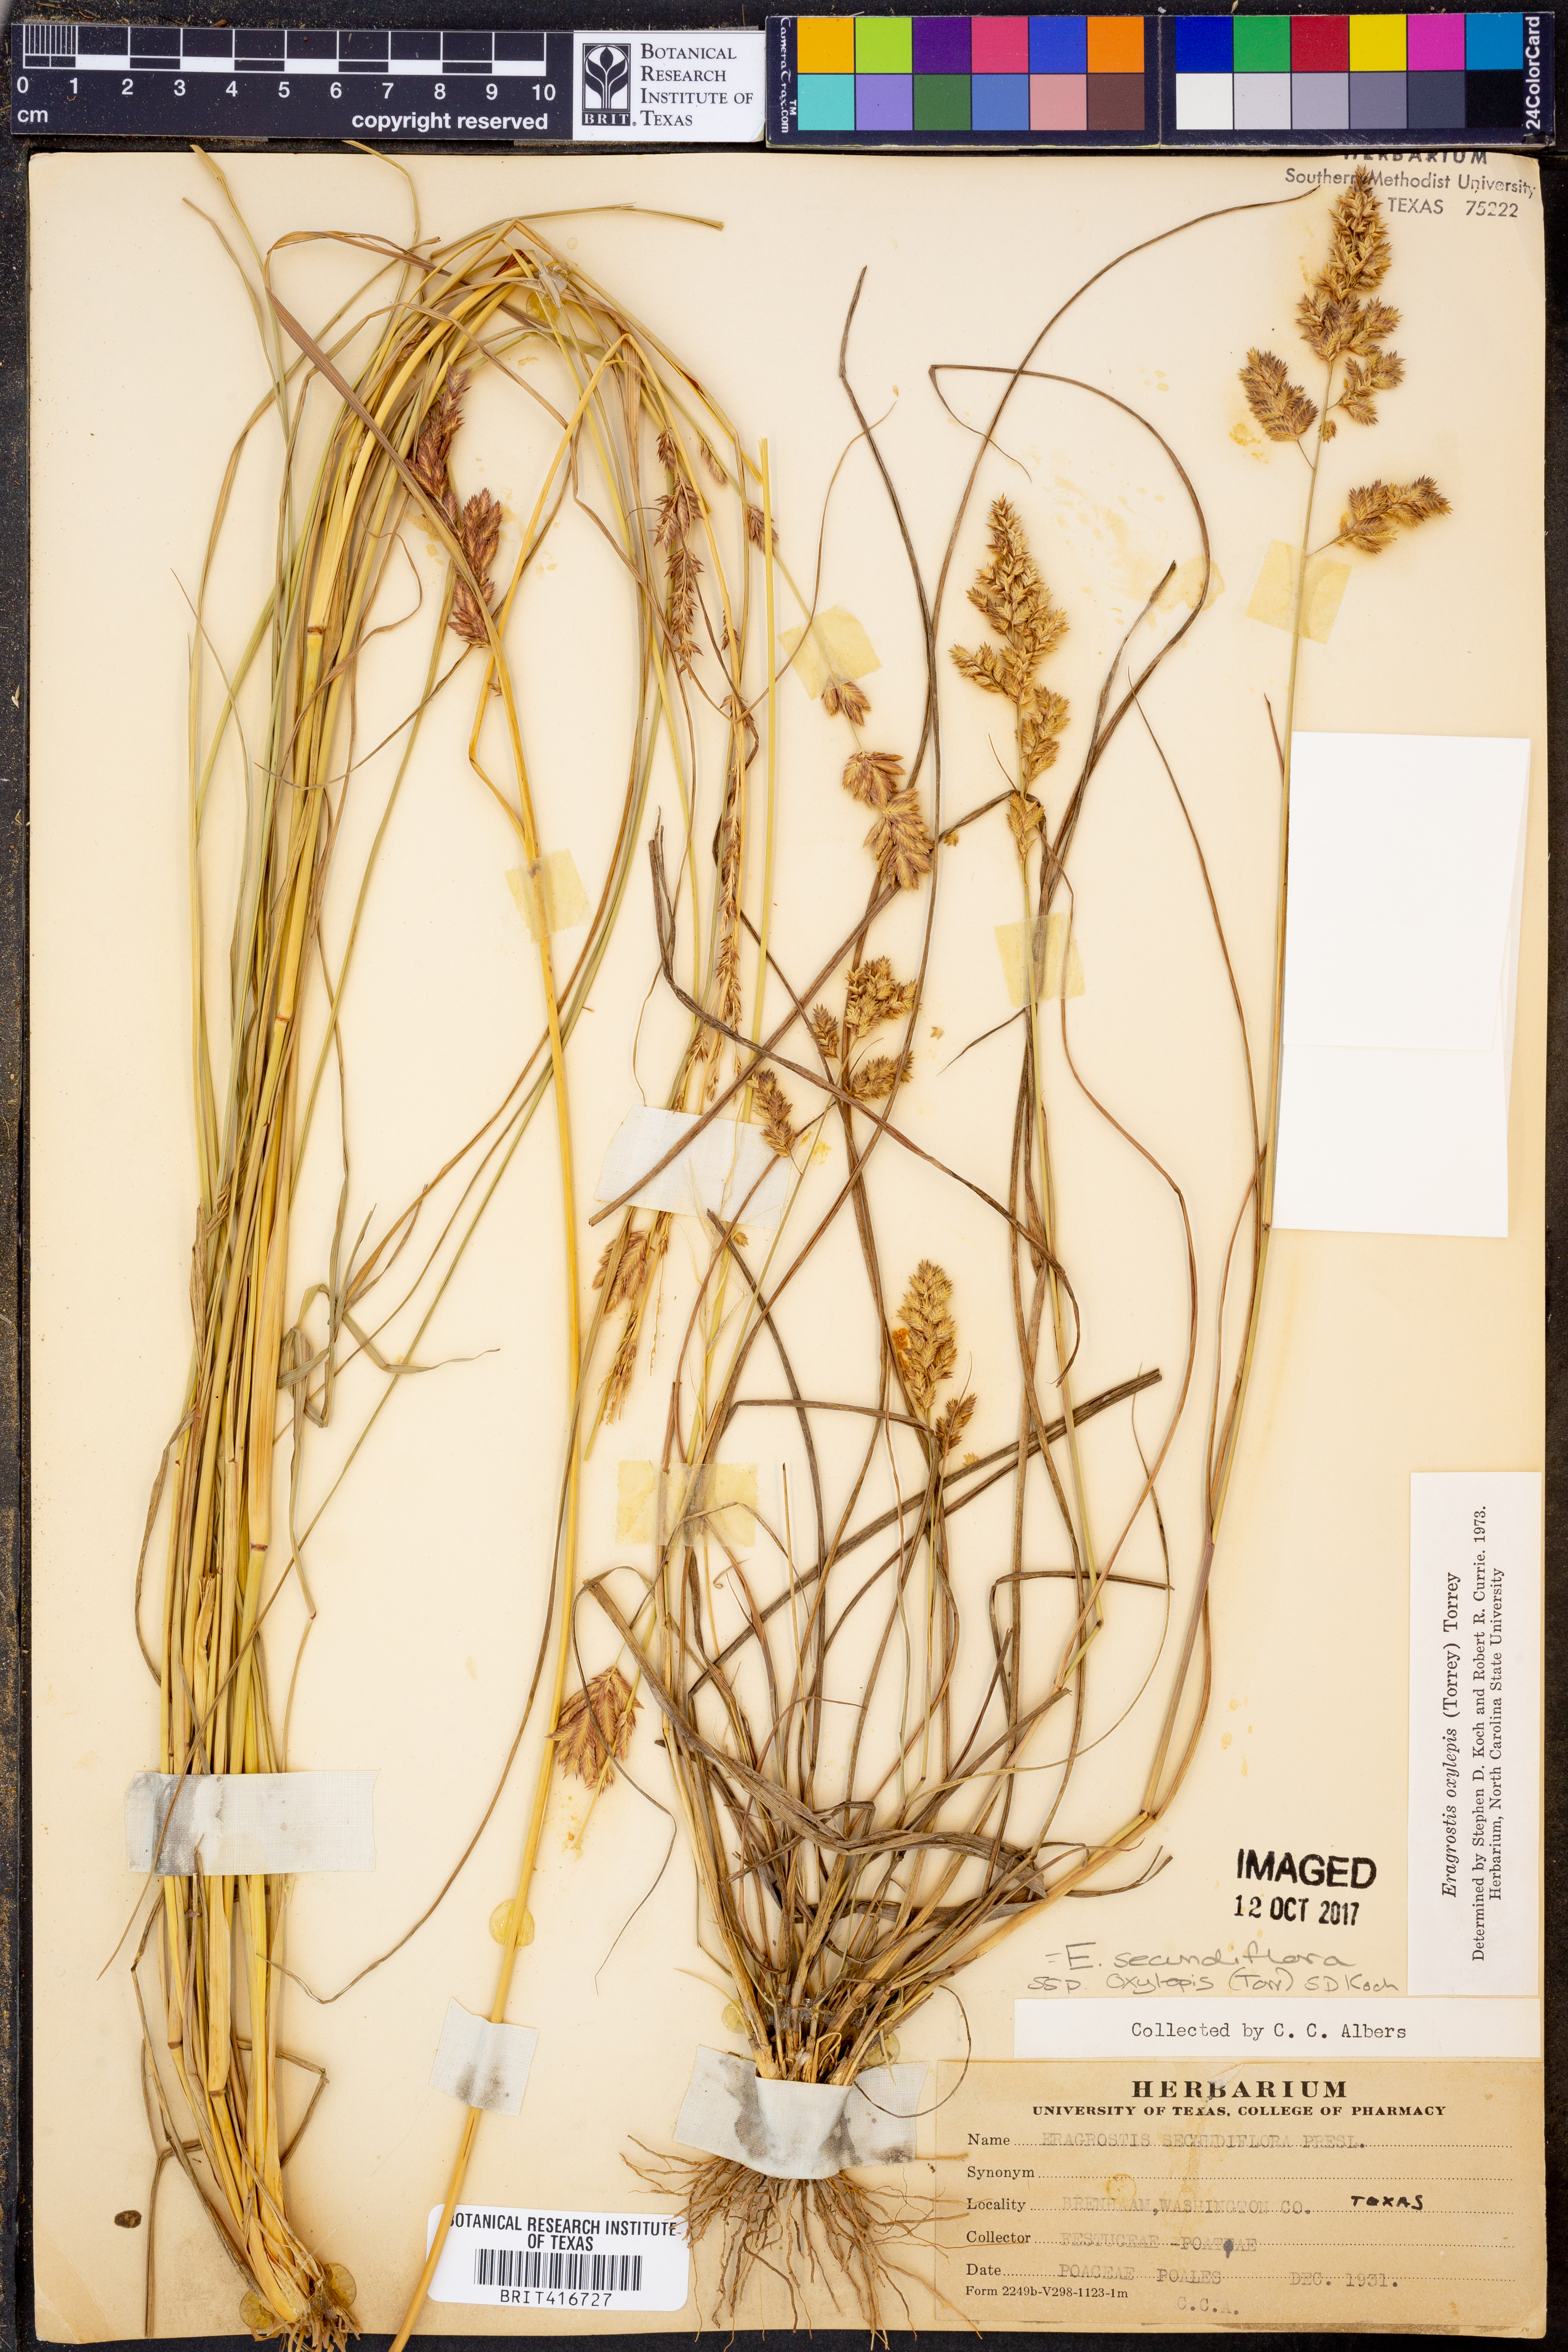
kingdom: Plantae
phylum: Tracheophyta
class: Liliopsida
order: Poales
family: Poaceae
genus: Eragrostis
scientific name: Eragrostis secundiflora
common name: Red love grass
